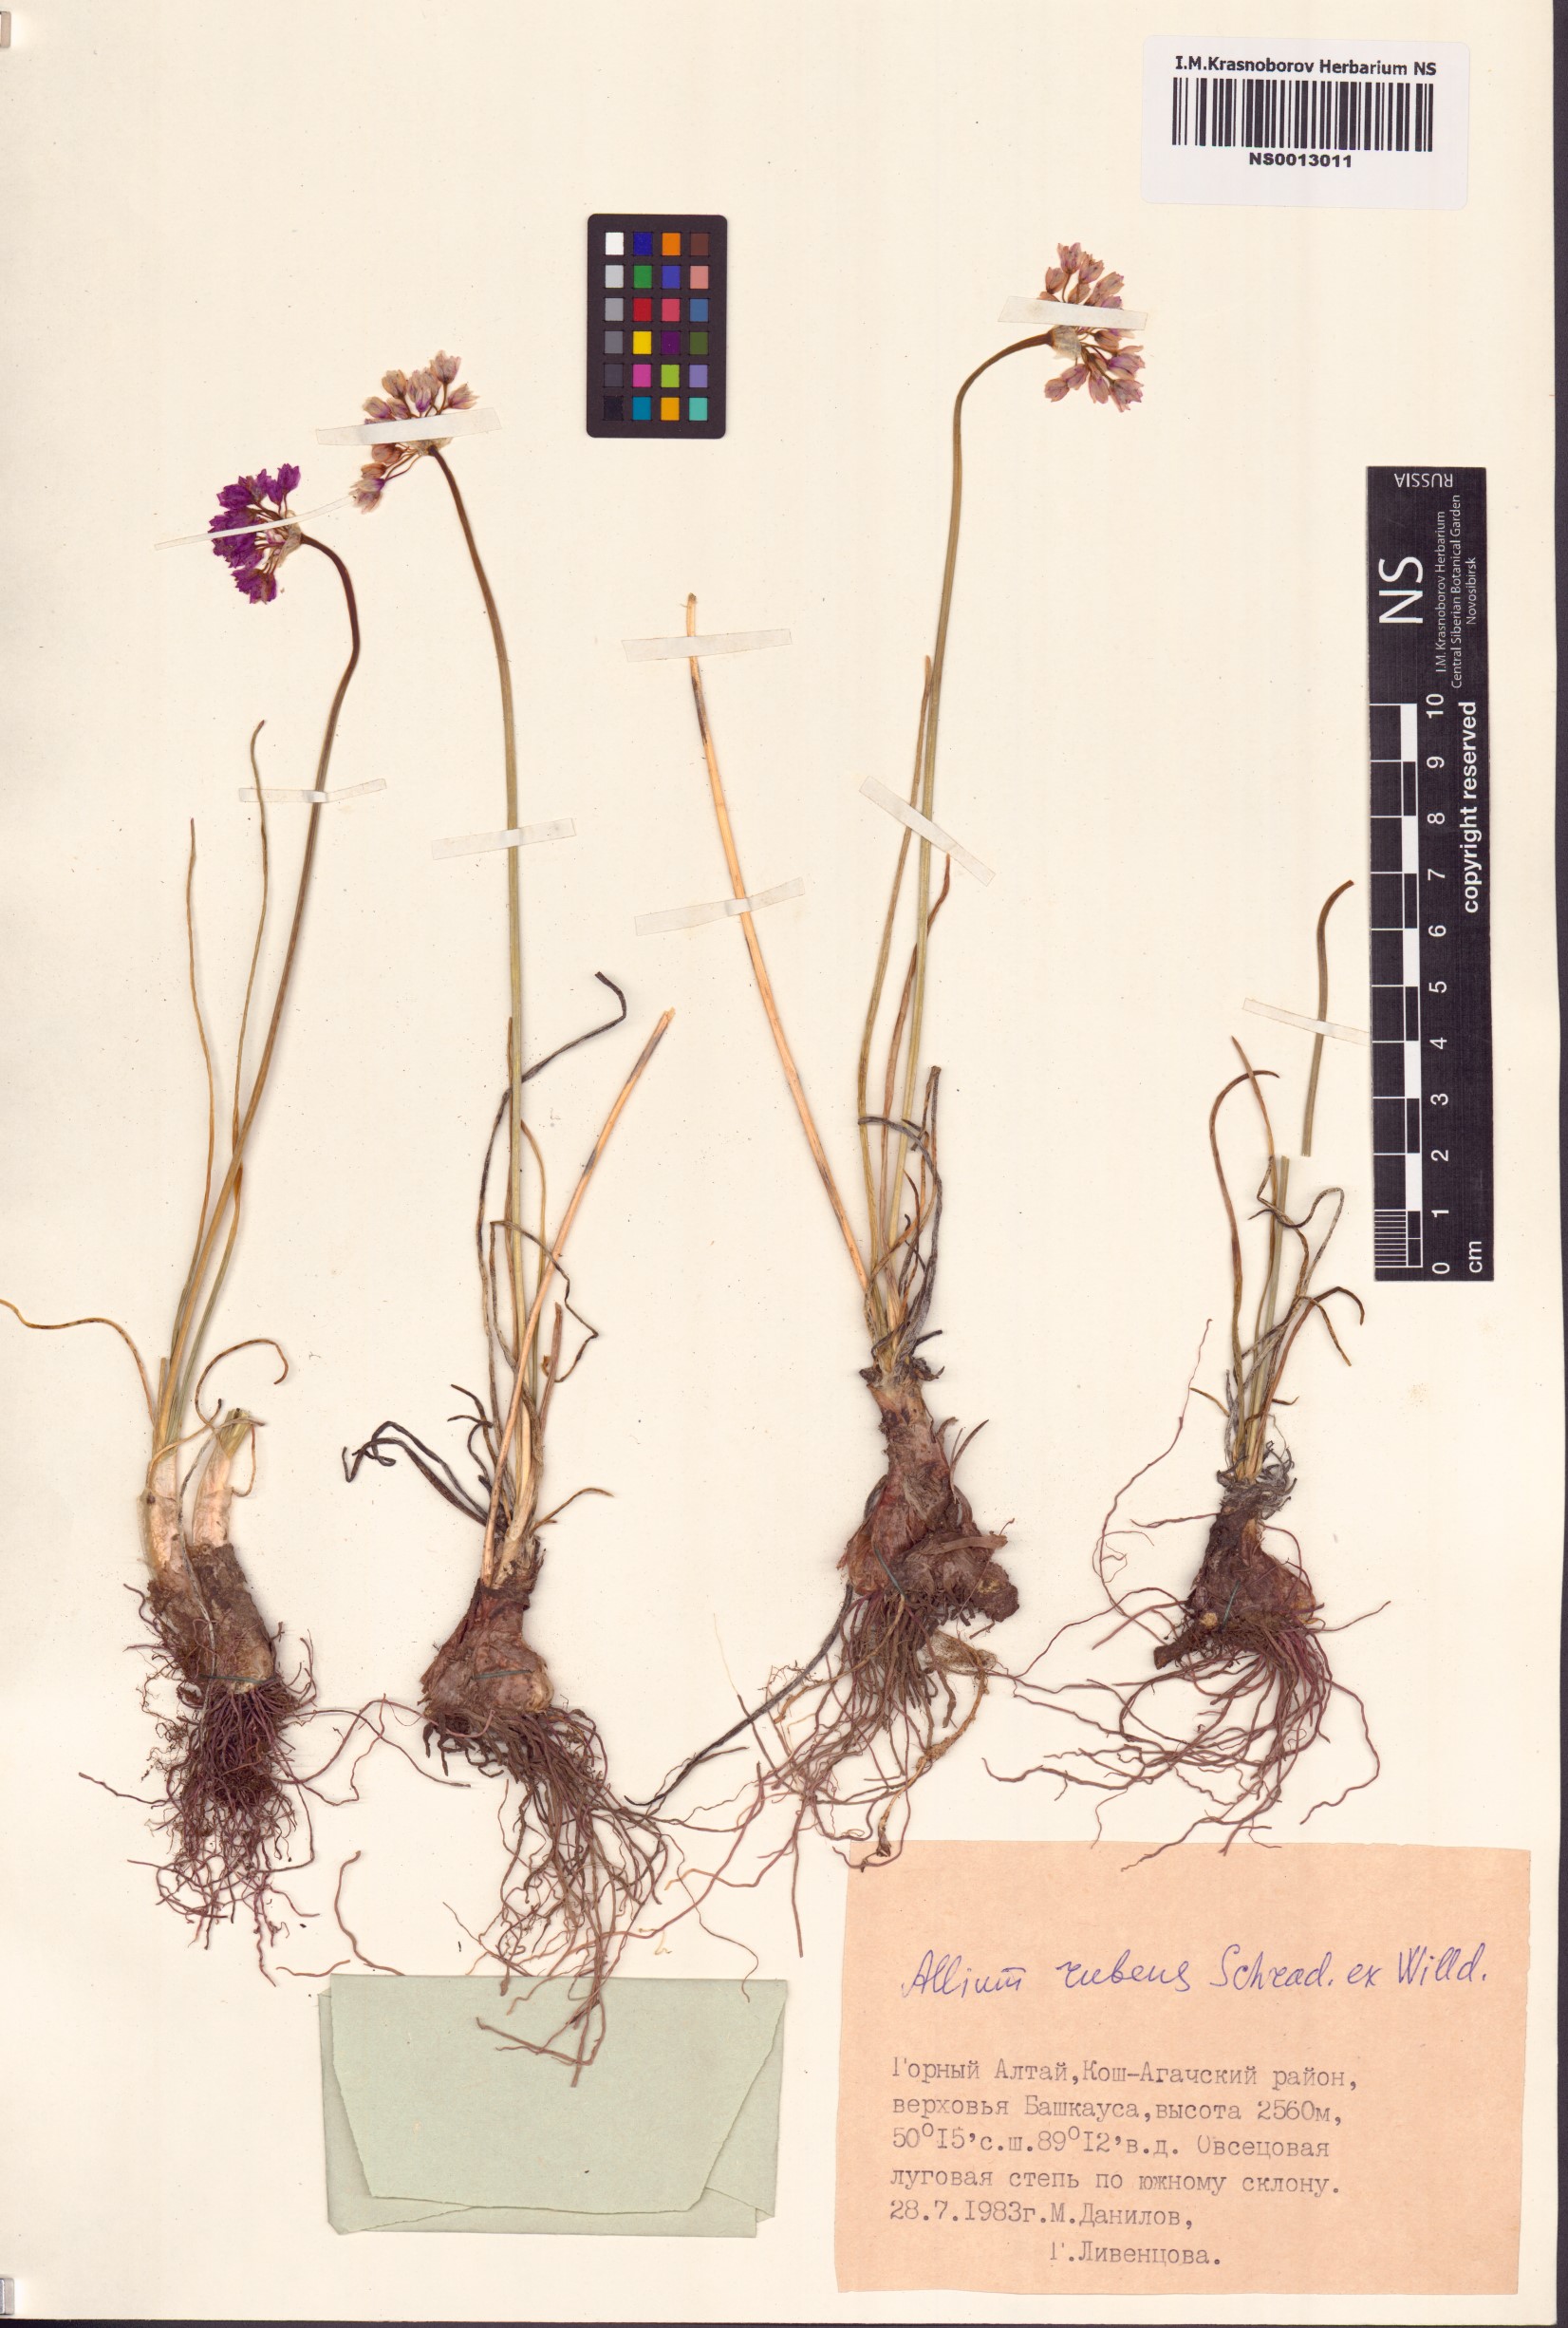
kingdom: Plantae
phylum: Tracheophyta
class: Liliopsida
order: Asparagales
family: Amaryllidaceae
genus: Allium
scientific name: Allium rubens
